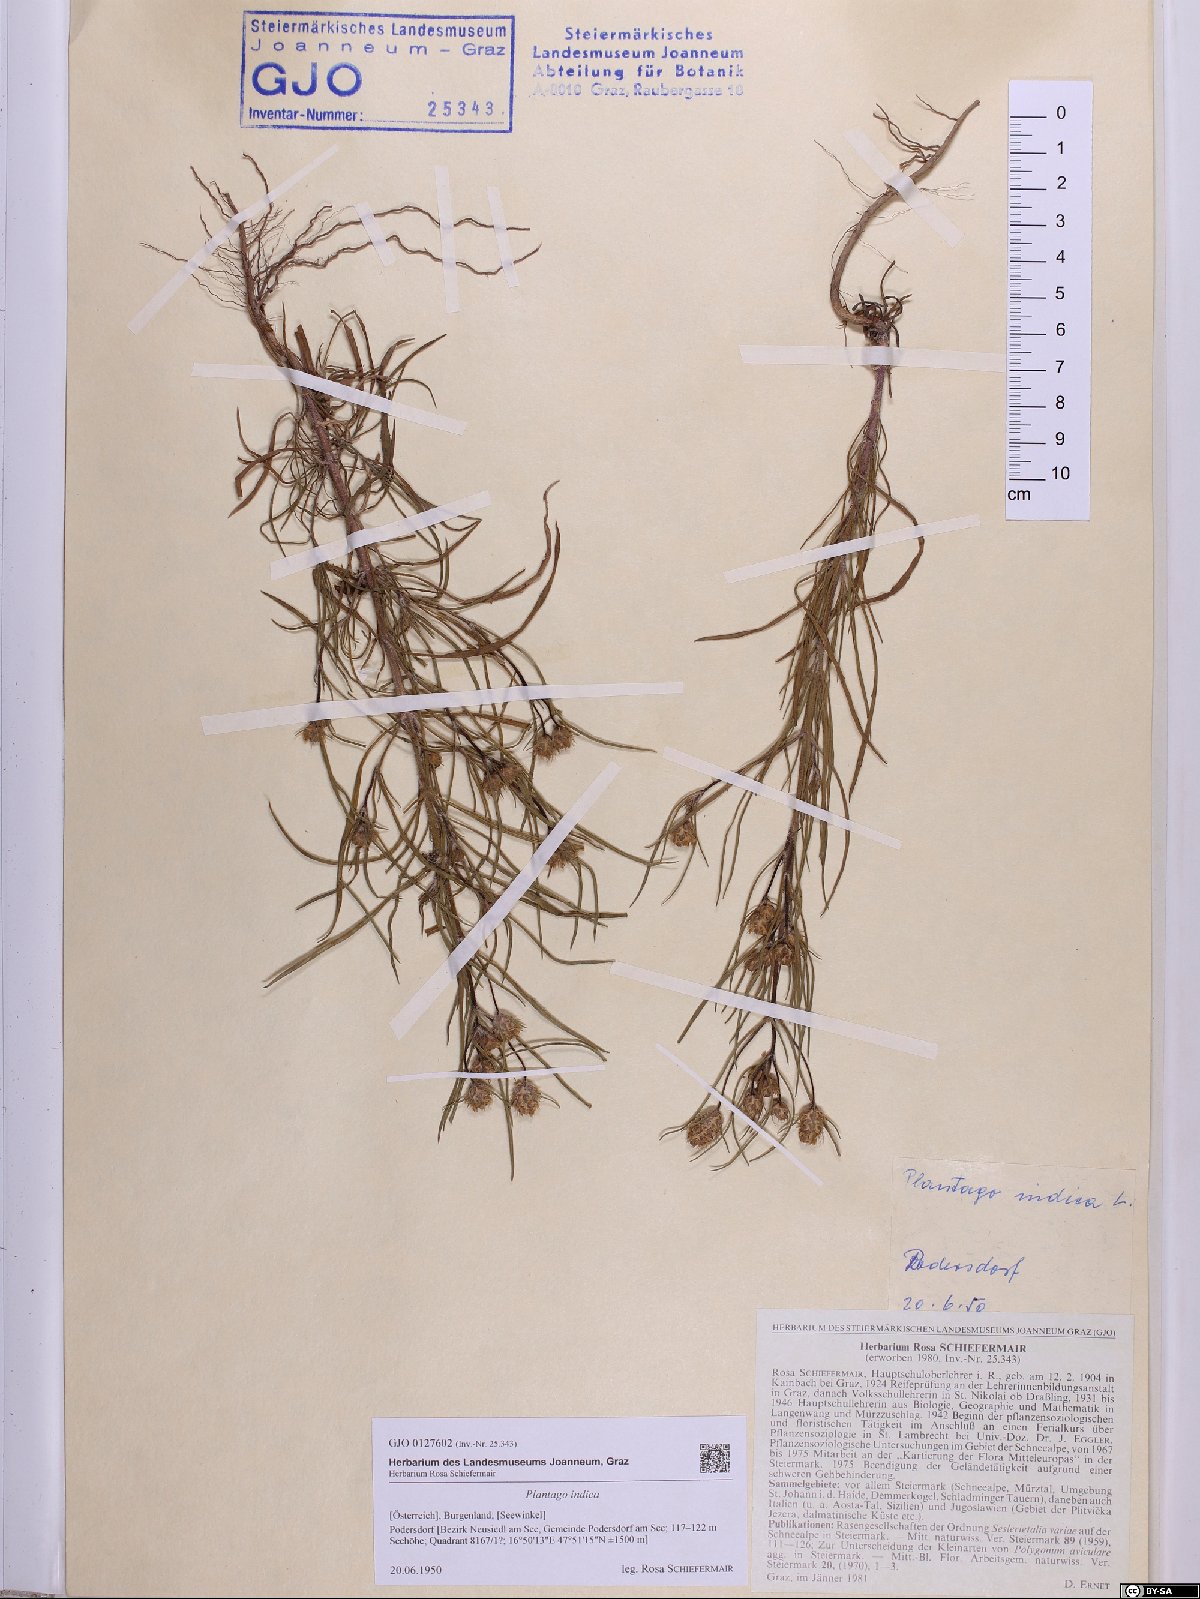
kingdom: Plantae
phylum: Tracheophyta
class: Magnoliopsida
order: Lamiales
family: Plantaginaceae
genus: Plantago
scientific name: Plantago arenaria
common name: Branched plantain
